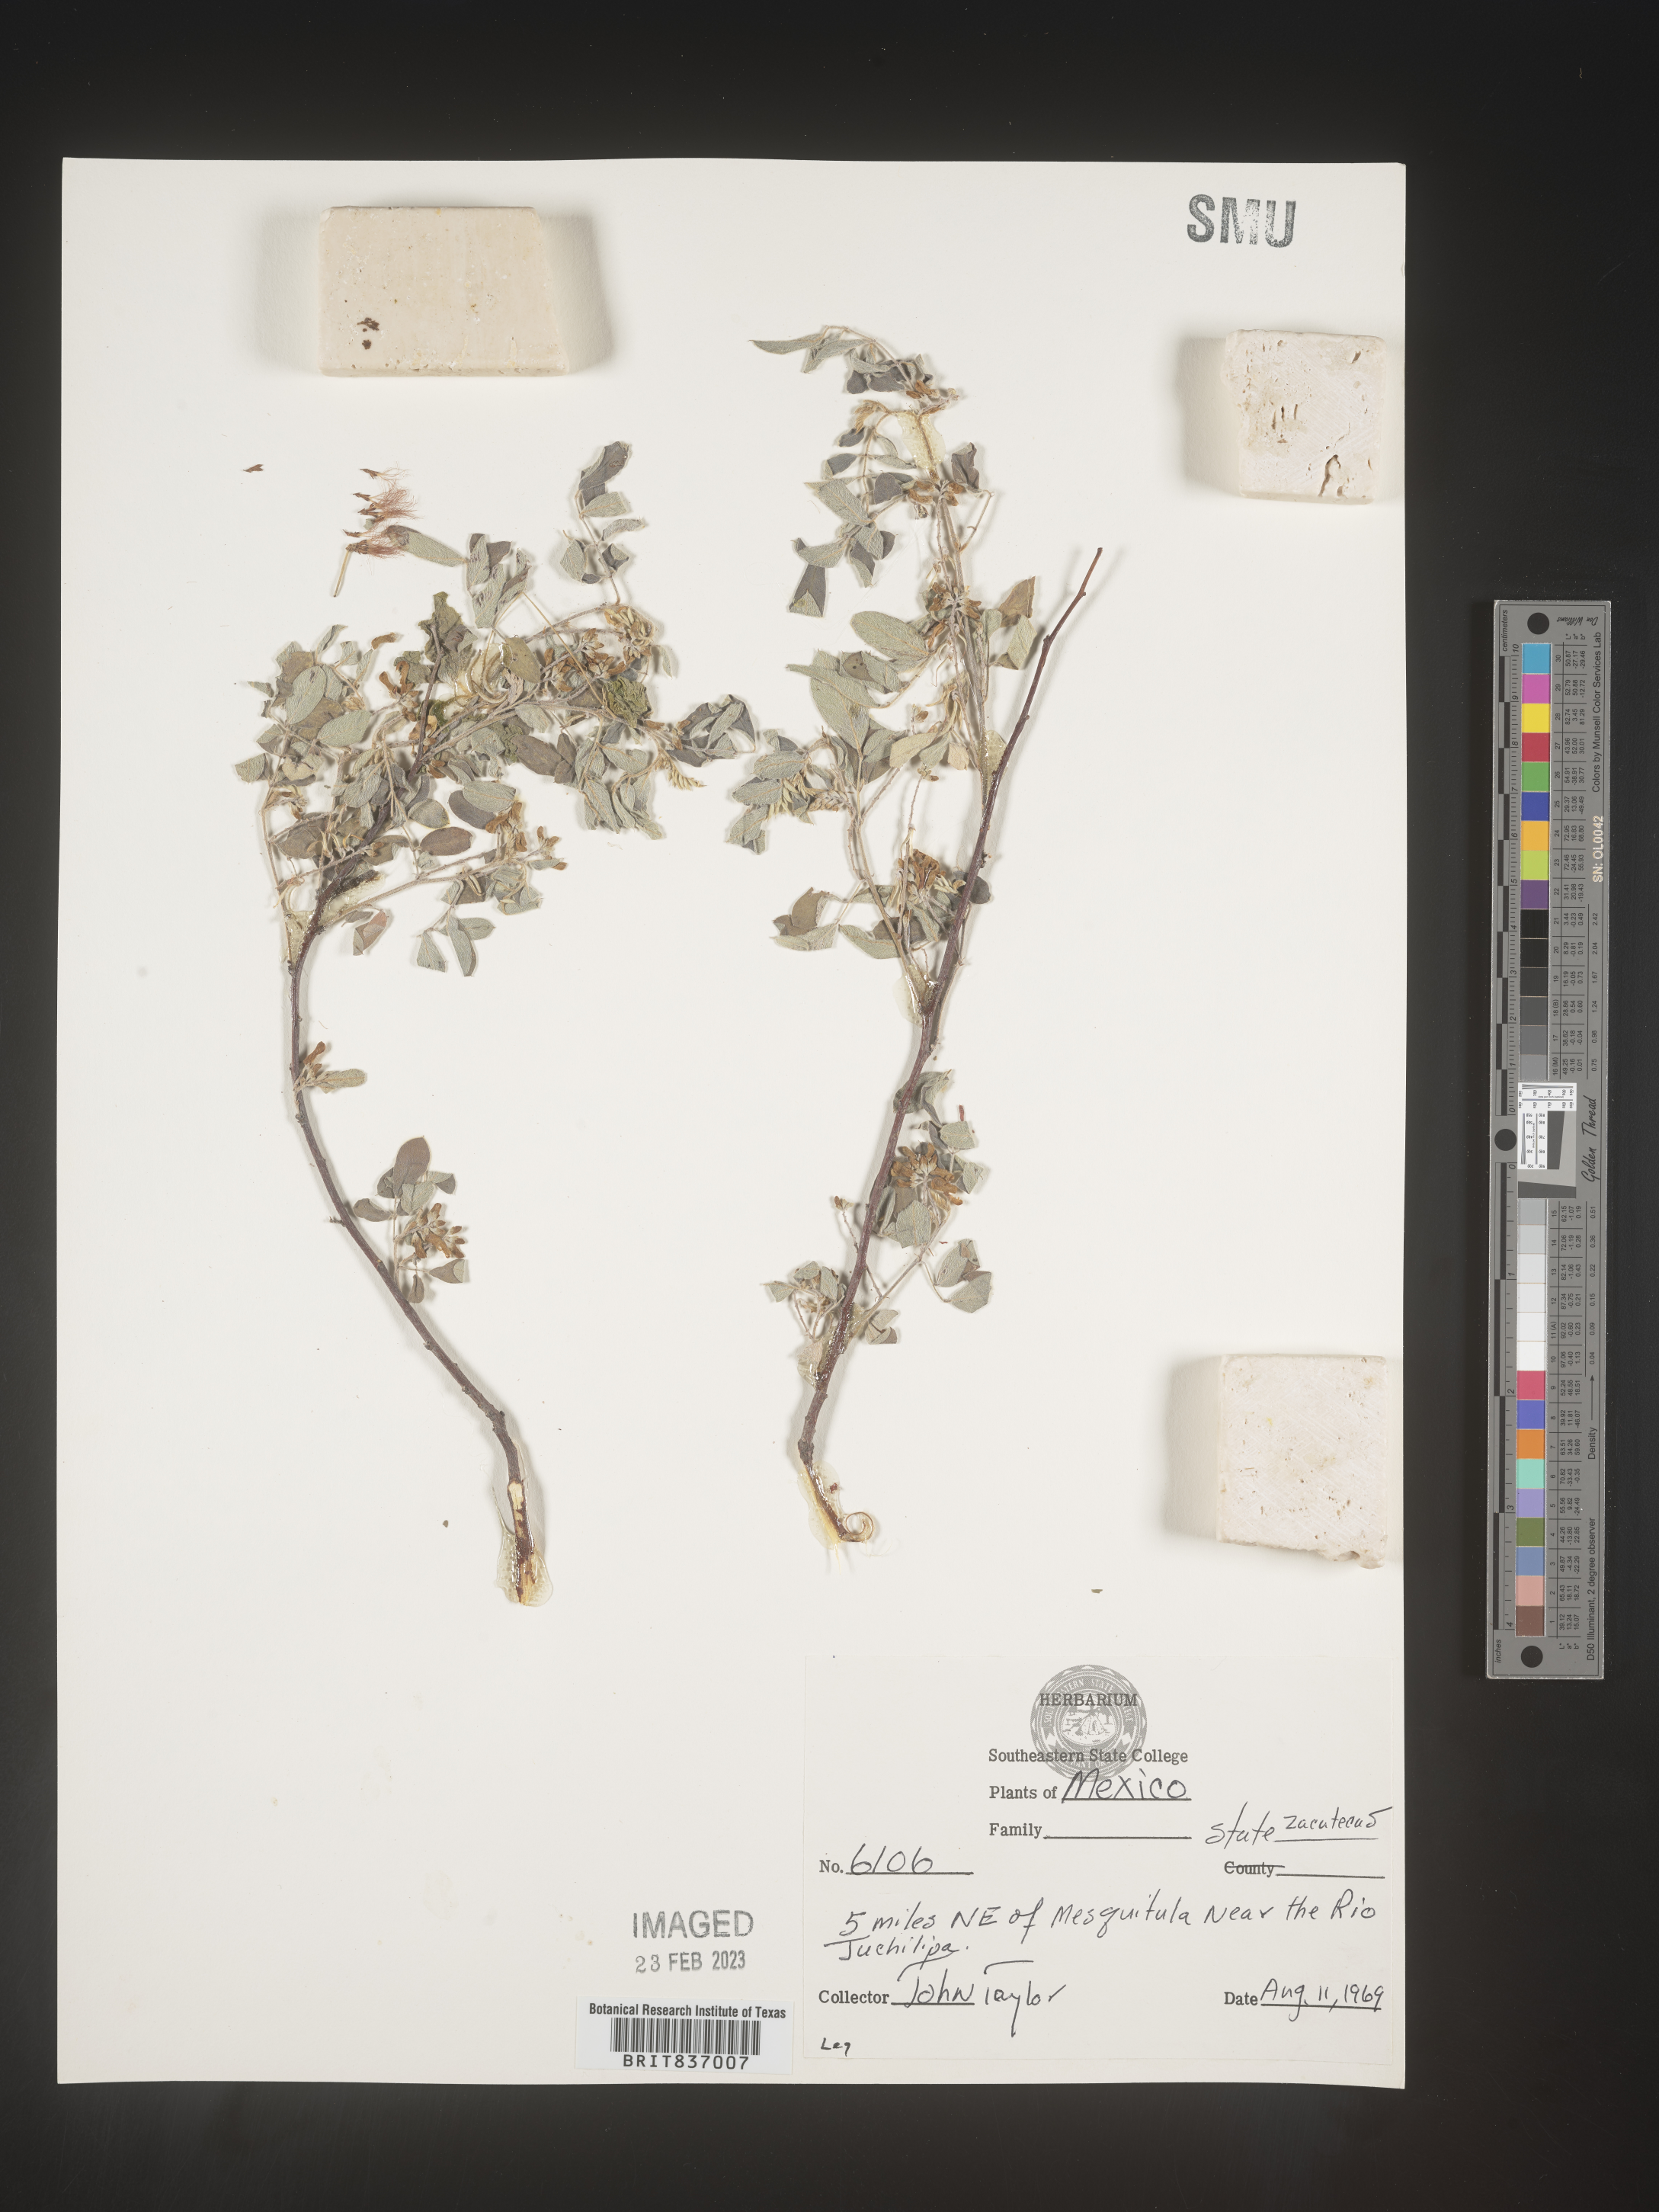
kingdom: Plantae
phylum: Tracheophyta
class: Magnoliopsida
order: Fabales
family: Fabaceae
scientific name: Fabaceae
